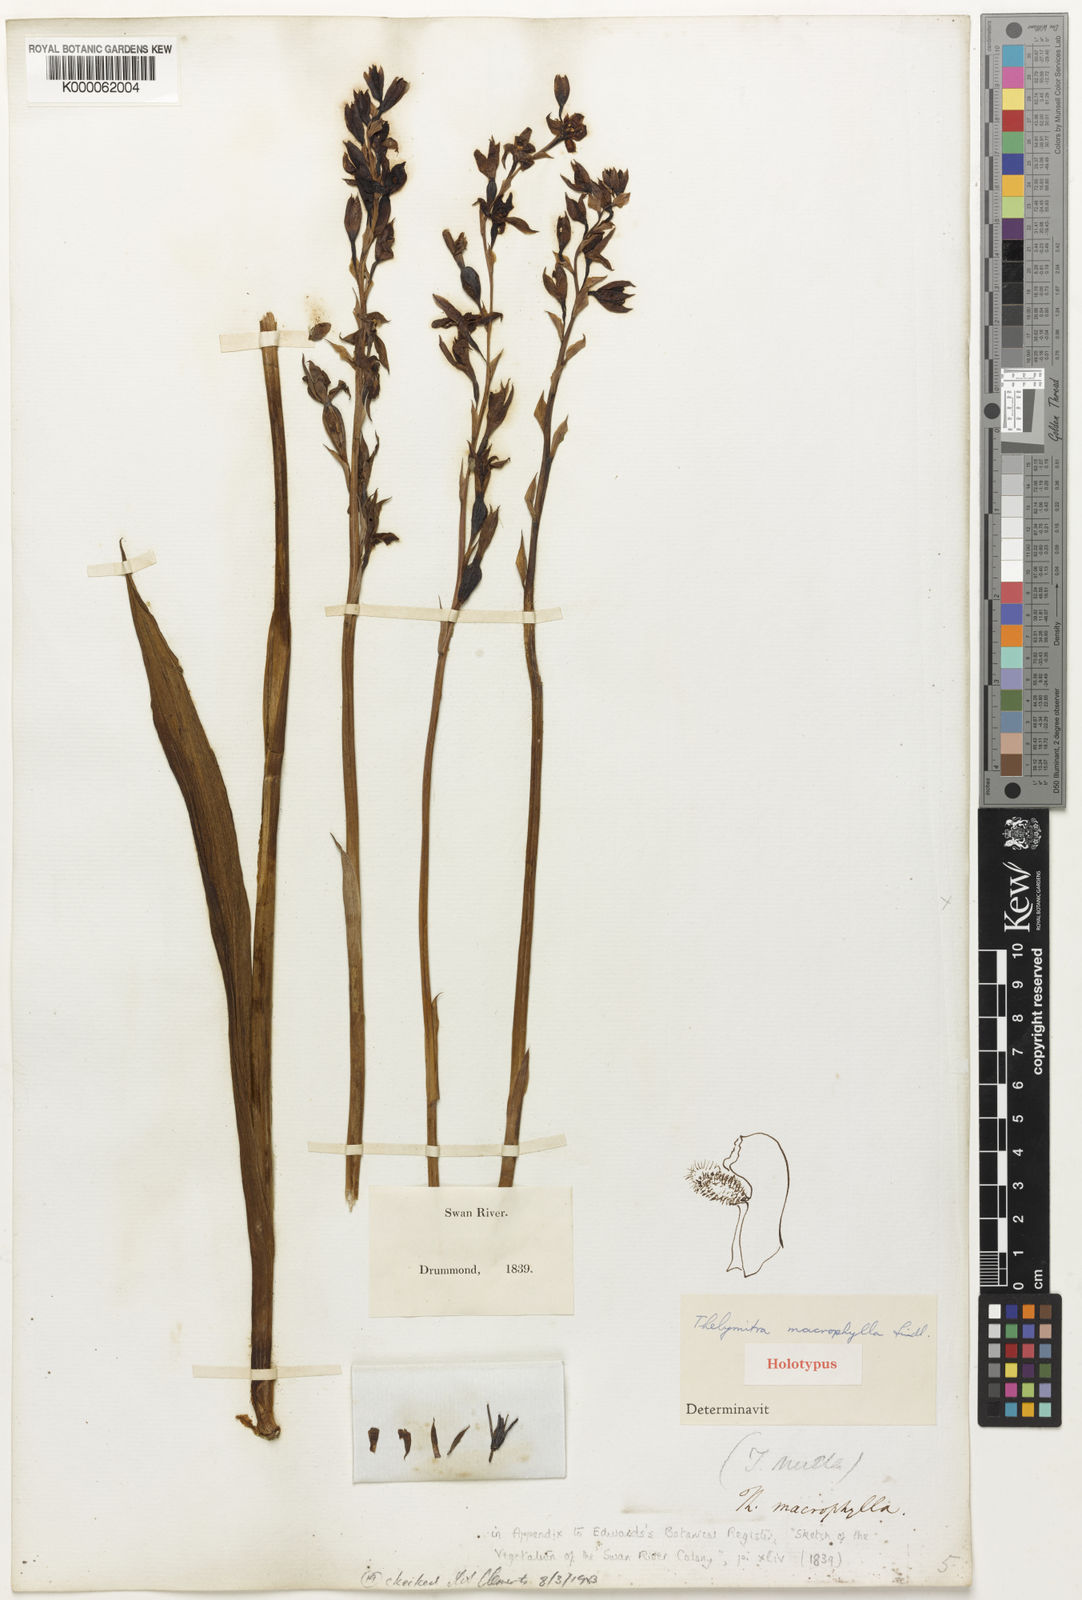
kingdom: Plantae
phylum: Tracheophyta
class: Liliopsida
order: Asparagales
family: Orchidaceae
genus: Thelymitra
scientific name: Thelymitra macrophylla
